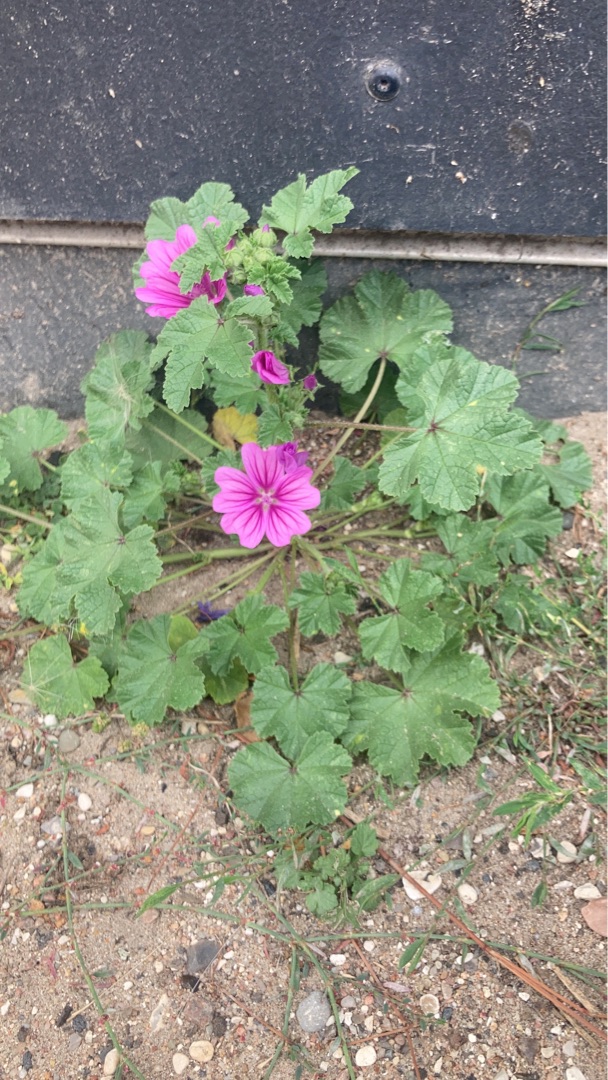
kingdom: Plantae
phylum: Tracheophyta
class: Magnoliopsida
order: Malvales
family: Malvaceae
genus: Malva
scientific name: Malva sylvestris
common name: Almindelig katost
